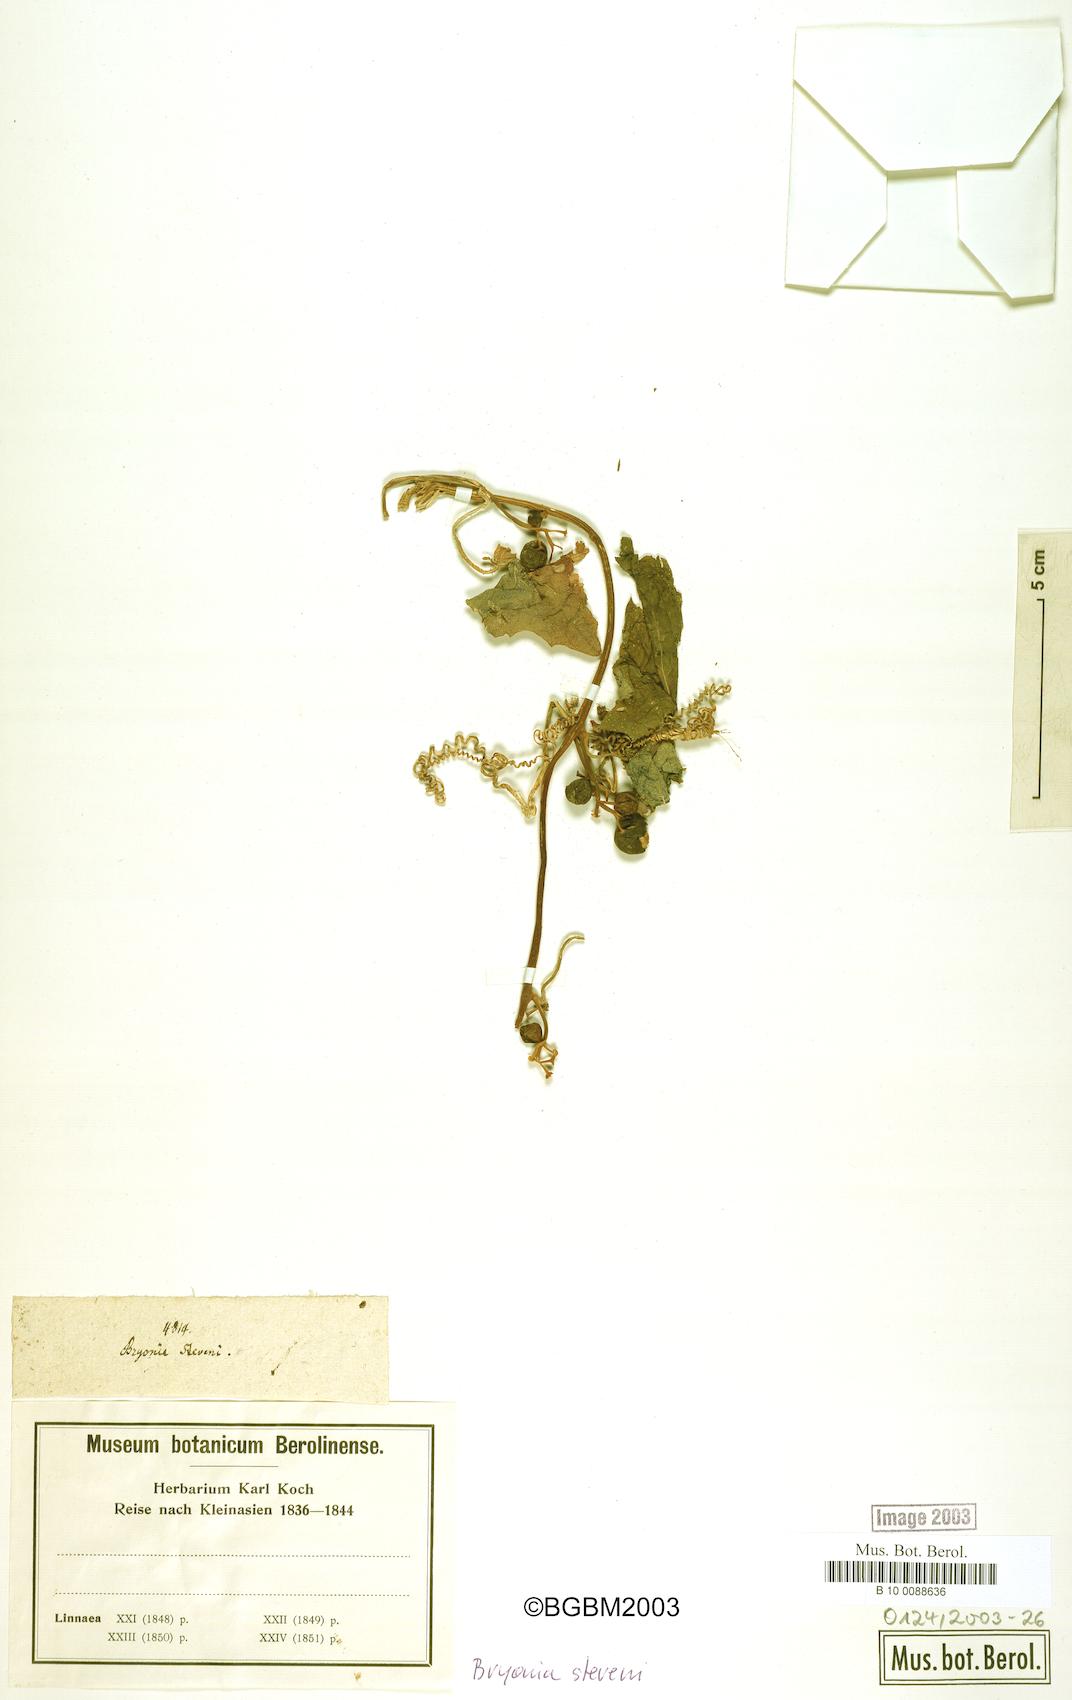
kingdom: Plantae
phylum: Tracheophyta
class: Magnoliopsida
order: Cucurbitales
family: Cucurbitaceae
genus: Bryonia
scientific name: Bryonia
